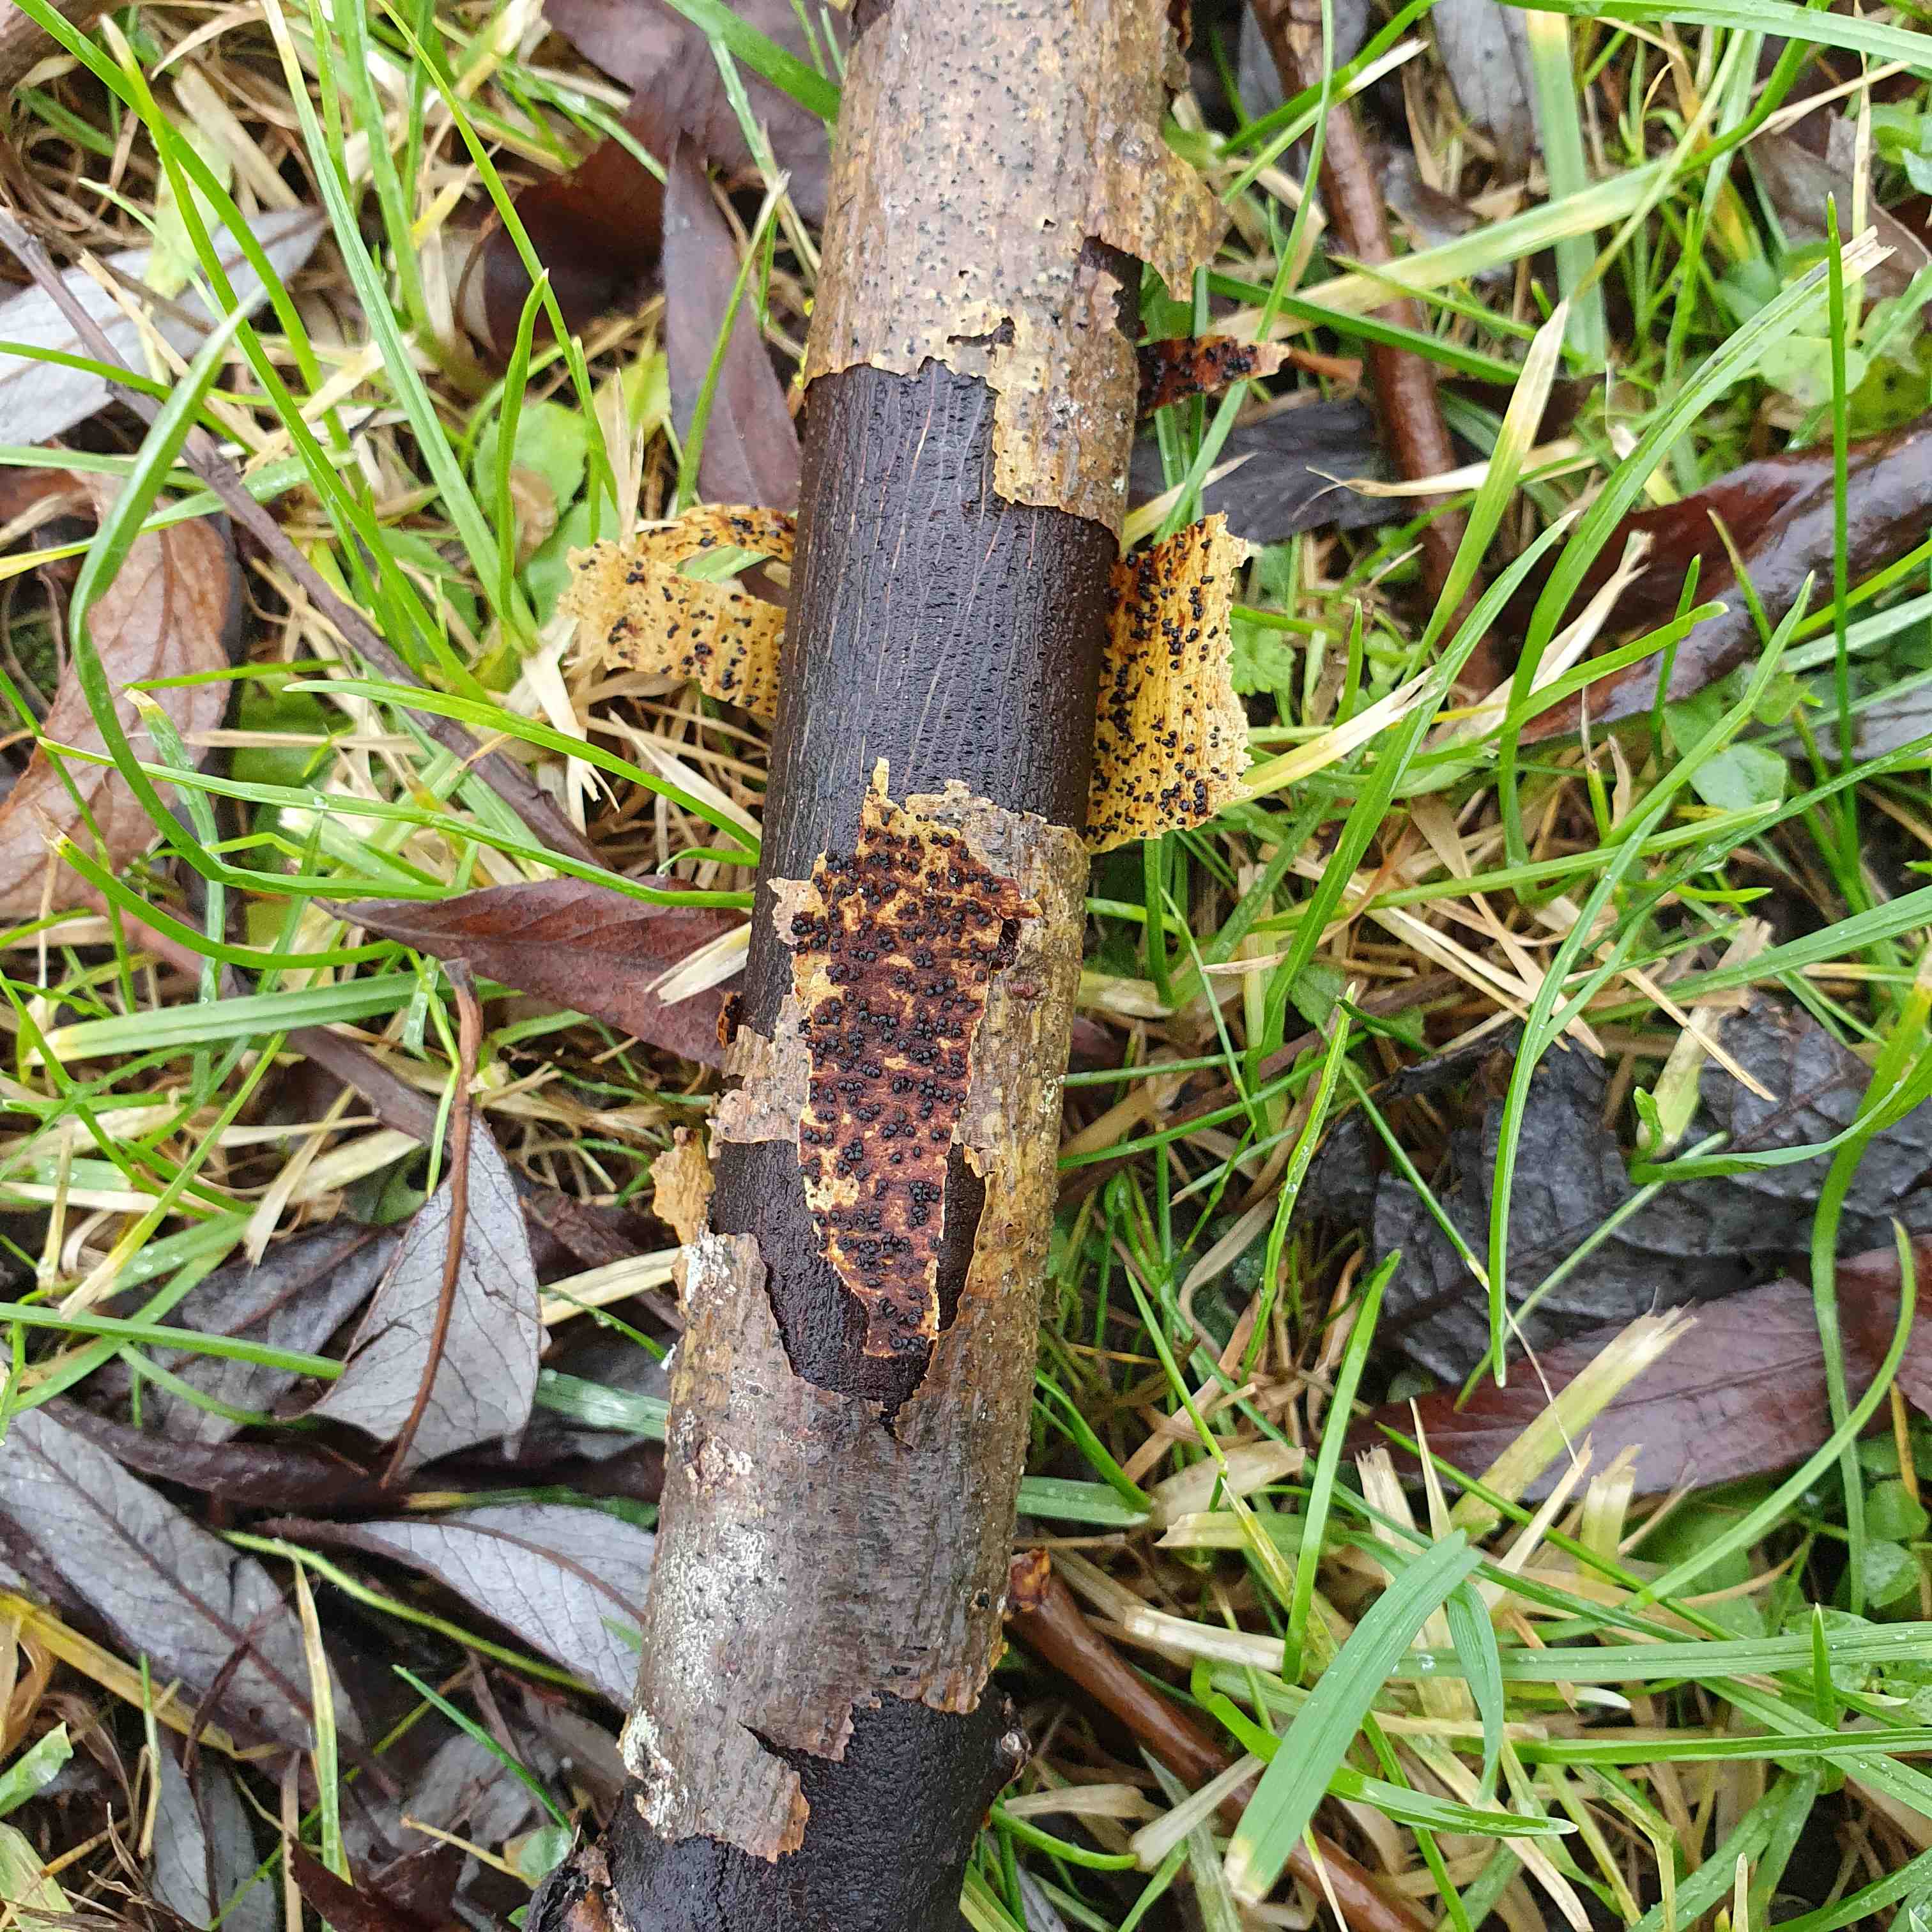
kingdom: Fungi
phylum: Ascomycota
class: Sordariomycetes
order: Diaporthales
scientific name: Diaporthales
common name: kulknippeordenen
